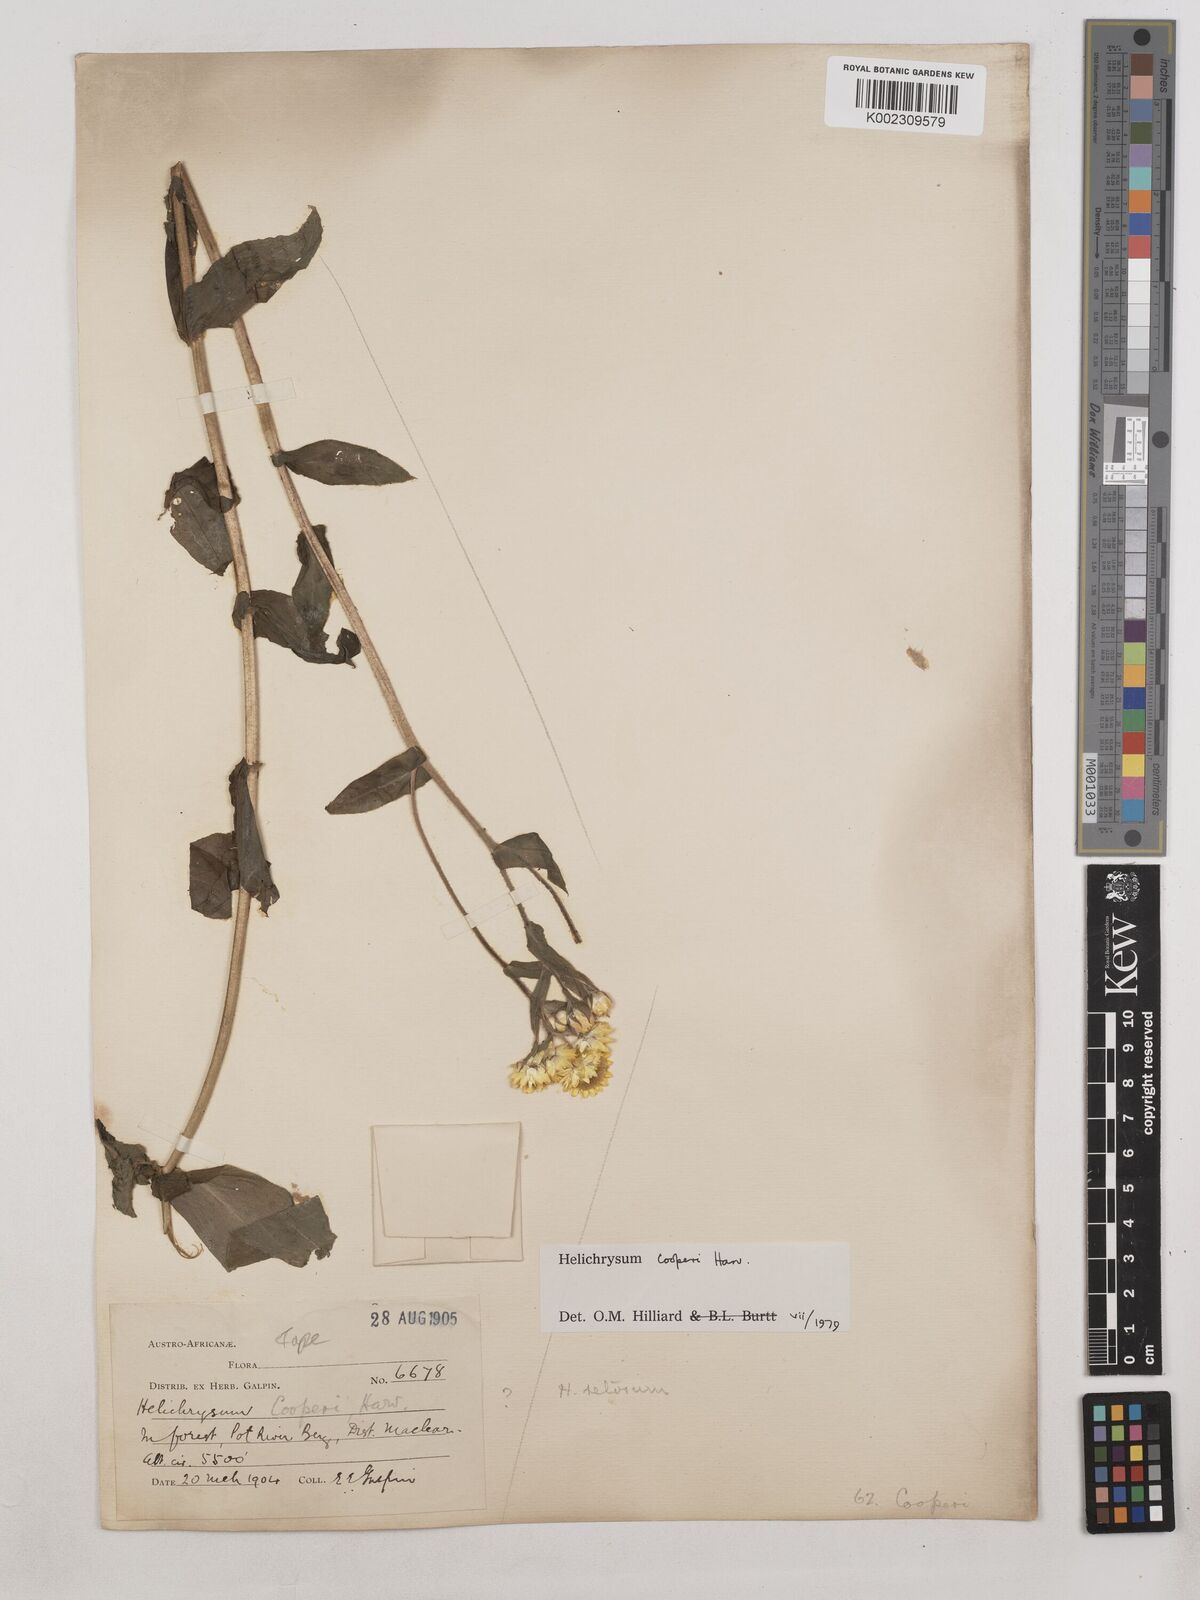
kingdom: Plantae
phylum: Tracheophyta
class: Magnoliopsida
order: Asterales
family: Asteraceae
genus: Helichrysum
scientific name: Helichrysum cooperi
